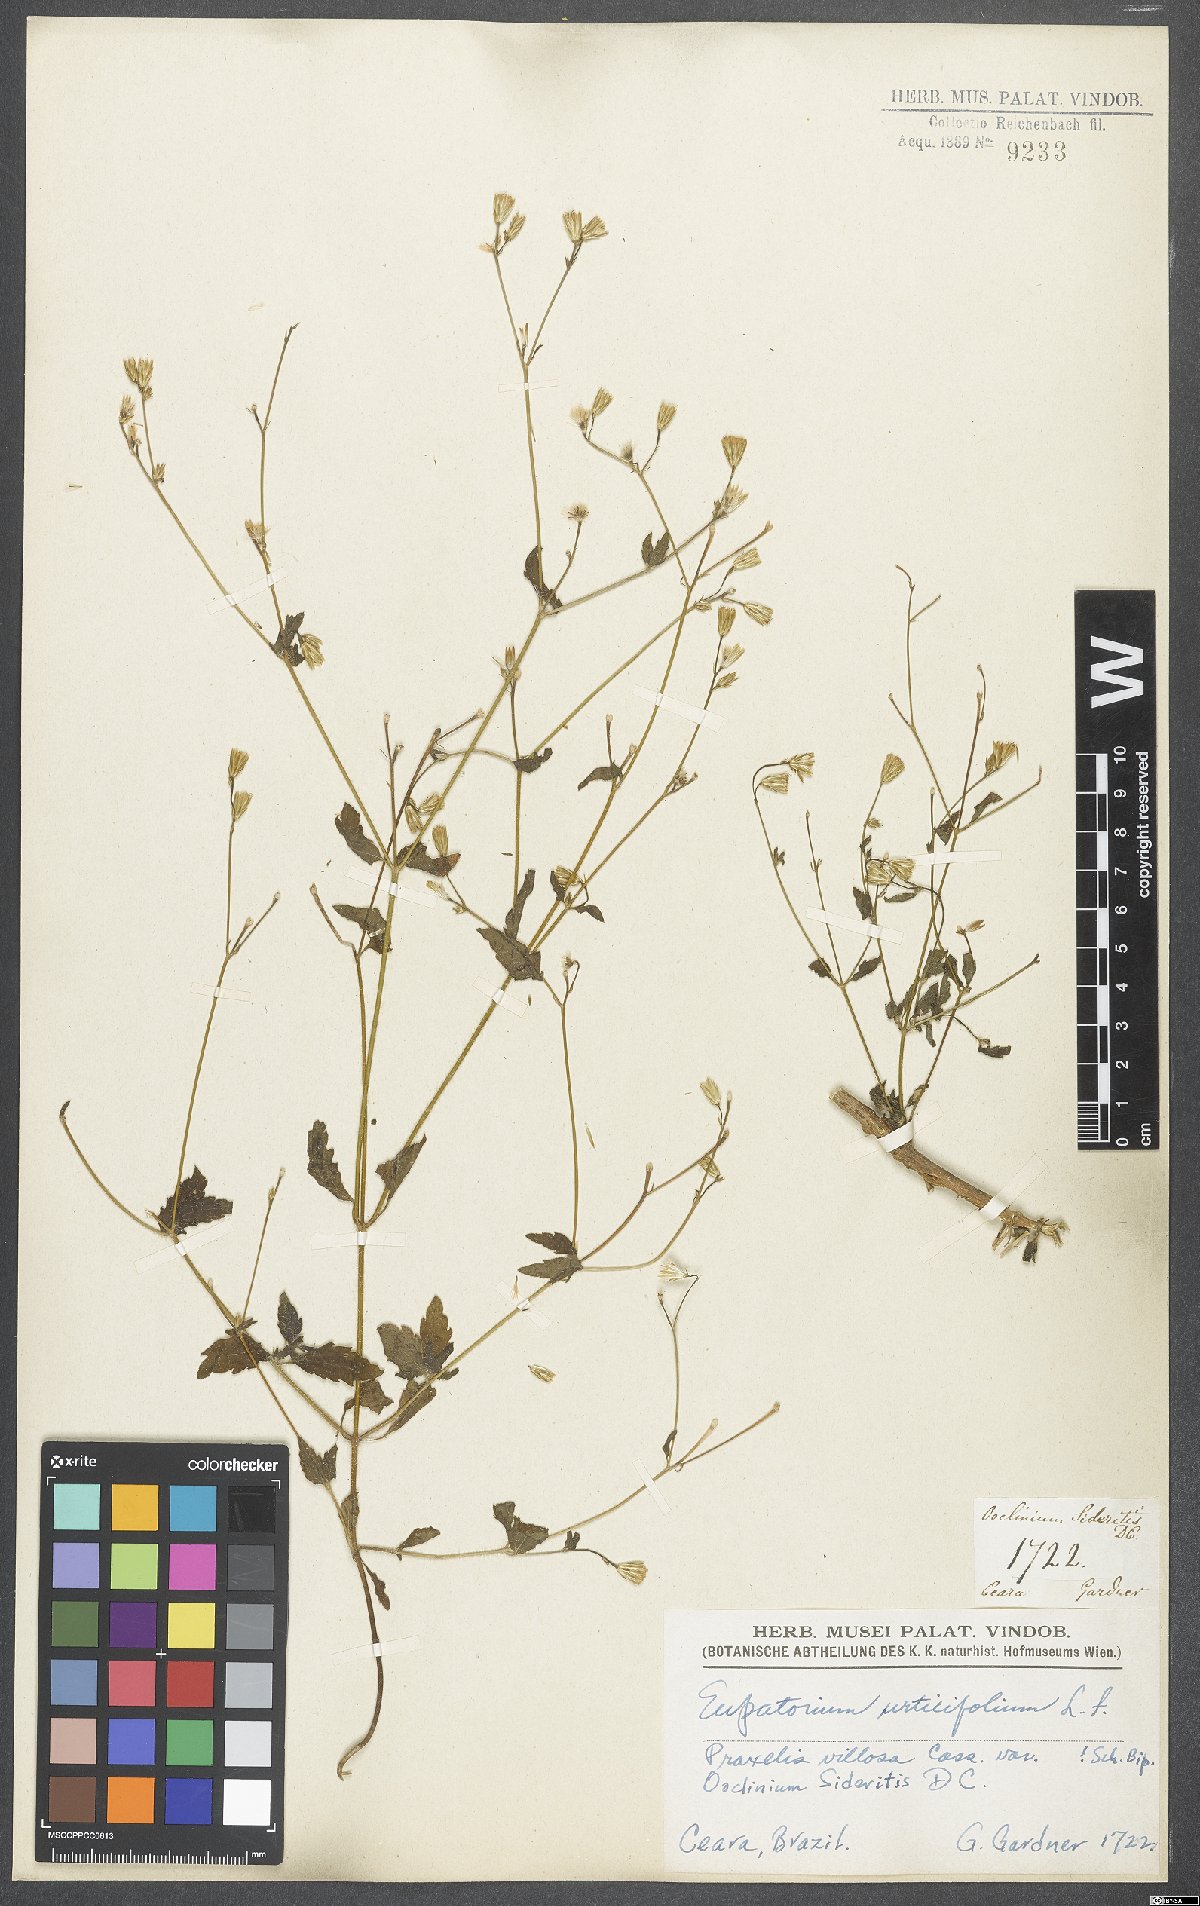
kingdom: Plantae
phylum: Tracheophyta
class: Magnoliopsida
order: Asterales
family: Asteraceae
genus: Ageratina
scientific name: Ageratina altissima
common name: White snakeroot
